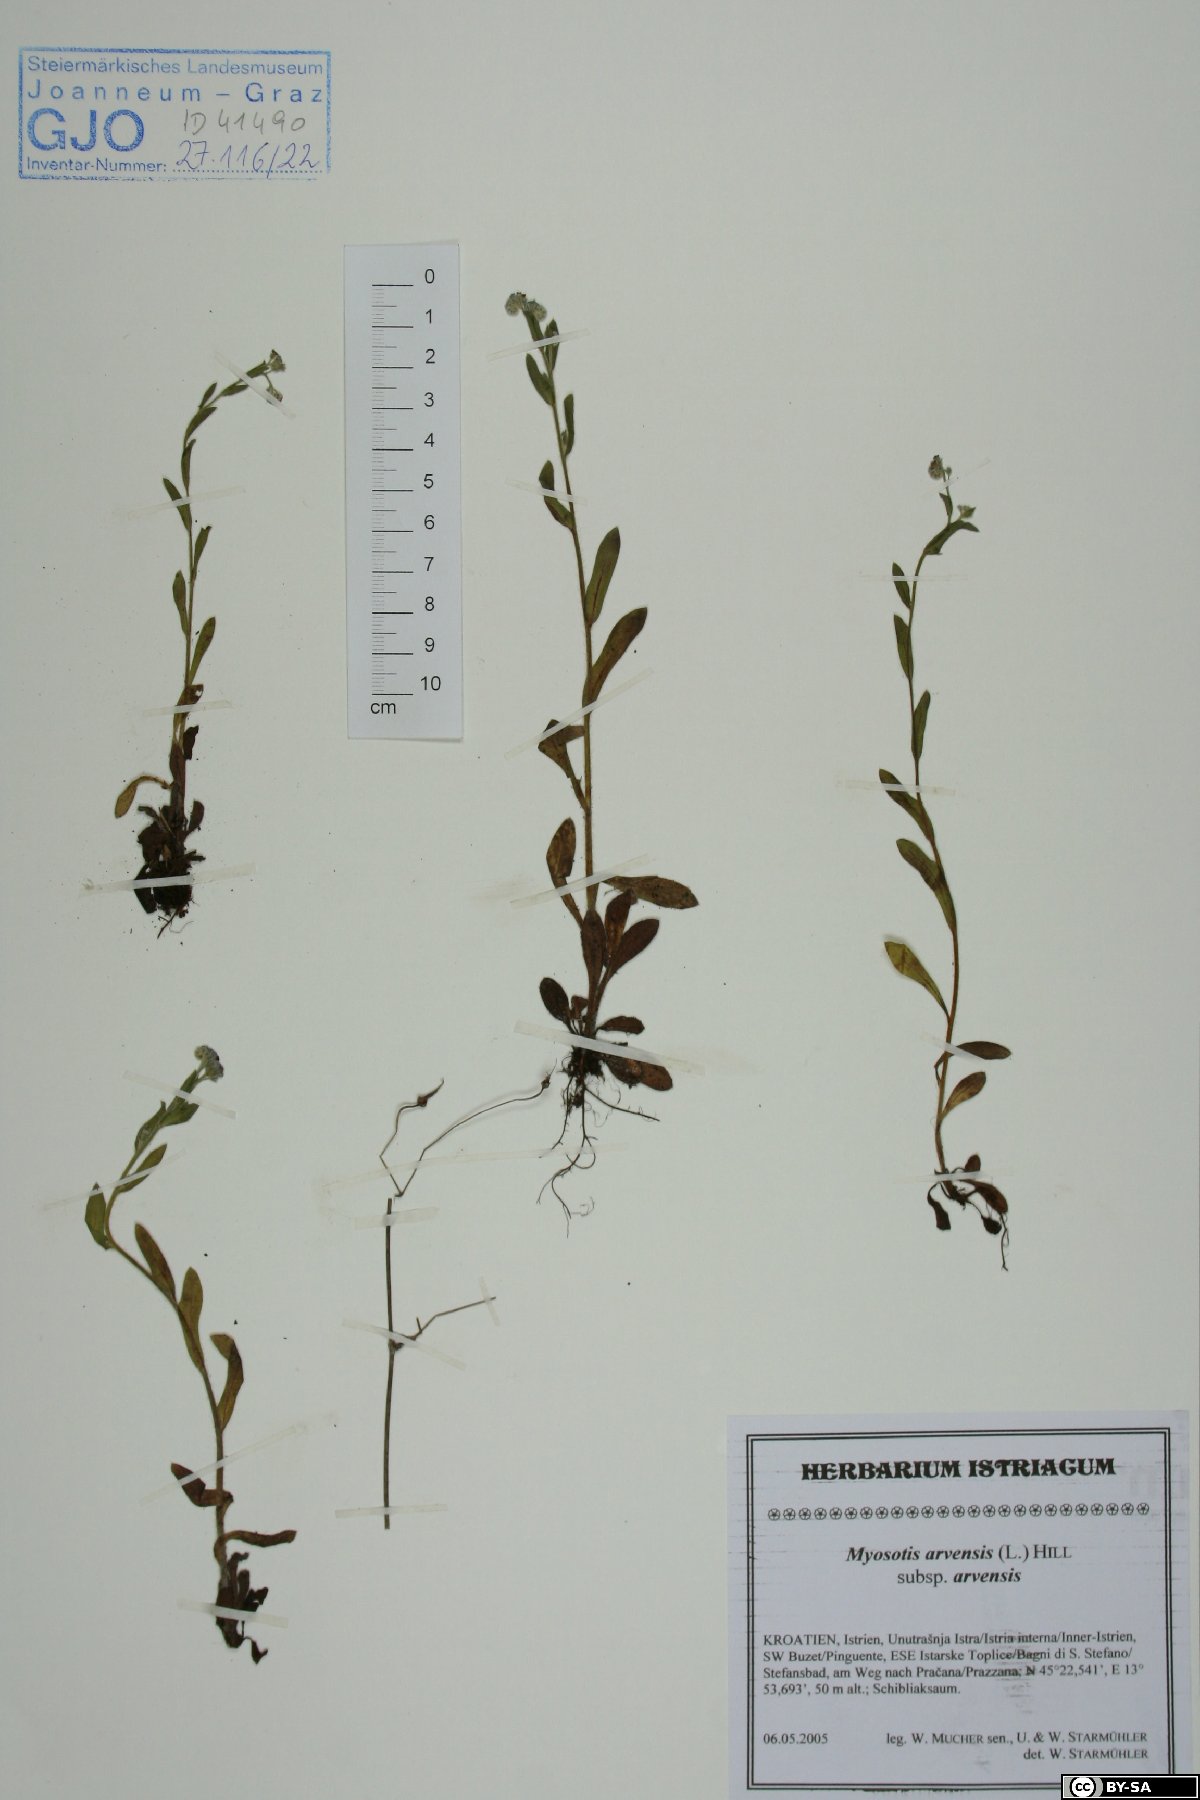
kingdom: Plantae
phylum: Tracheophyta
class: Magnoliopsida
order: Boraginales
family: Boraginaceae
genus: Myosotis
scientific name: Myosotis arvensis
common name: Field forget-me-not
